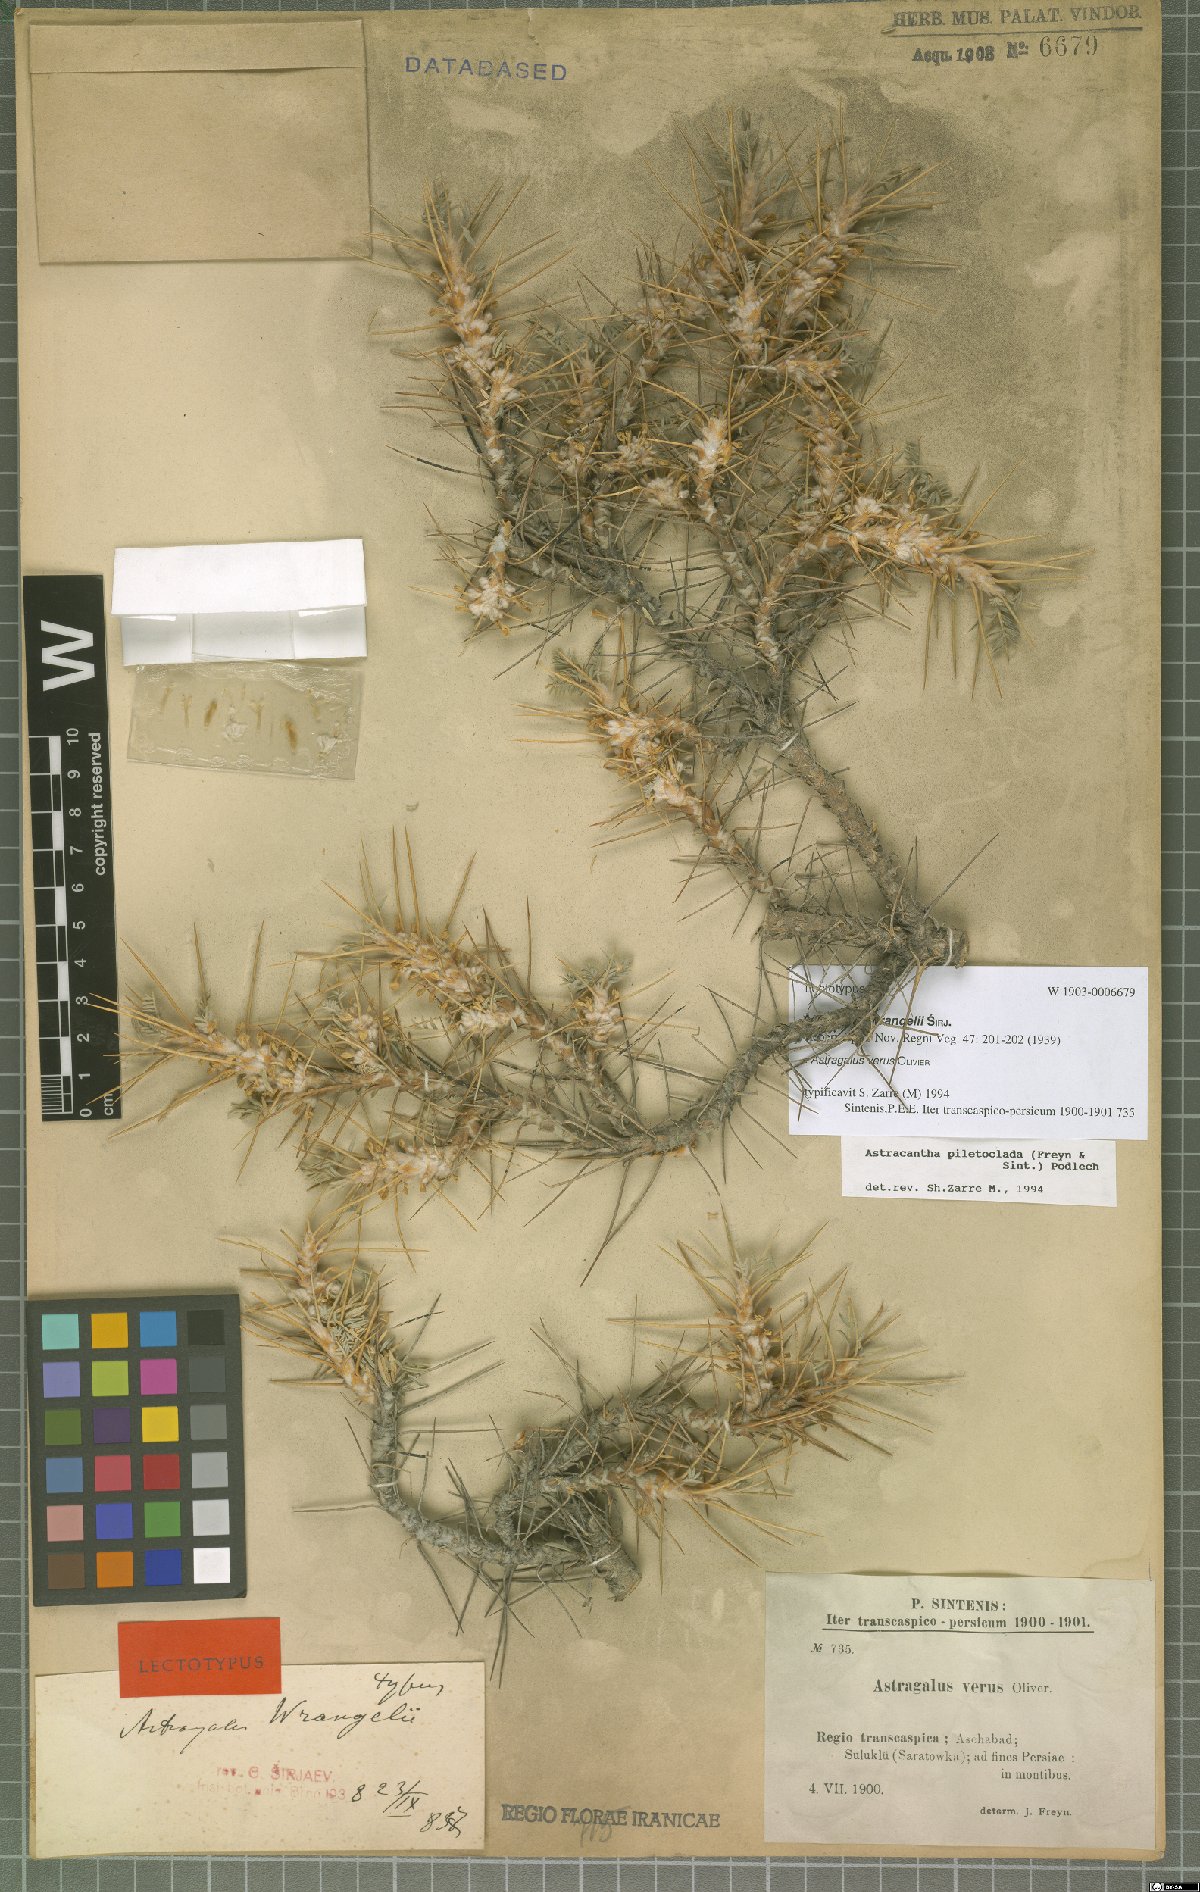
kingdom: Plantae
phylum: Tracheophyta
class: Magnoliopsida
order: Fabales
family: Fabaceae
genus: Astragalus
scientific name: Astragalus verus
